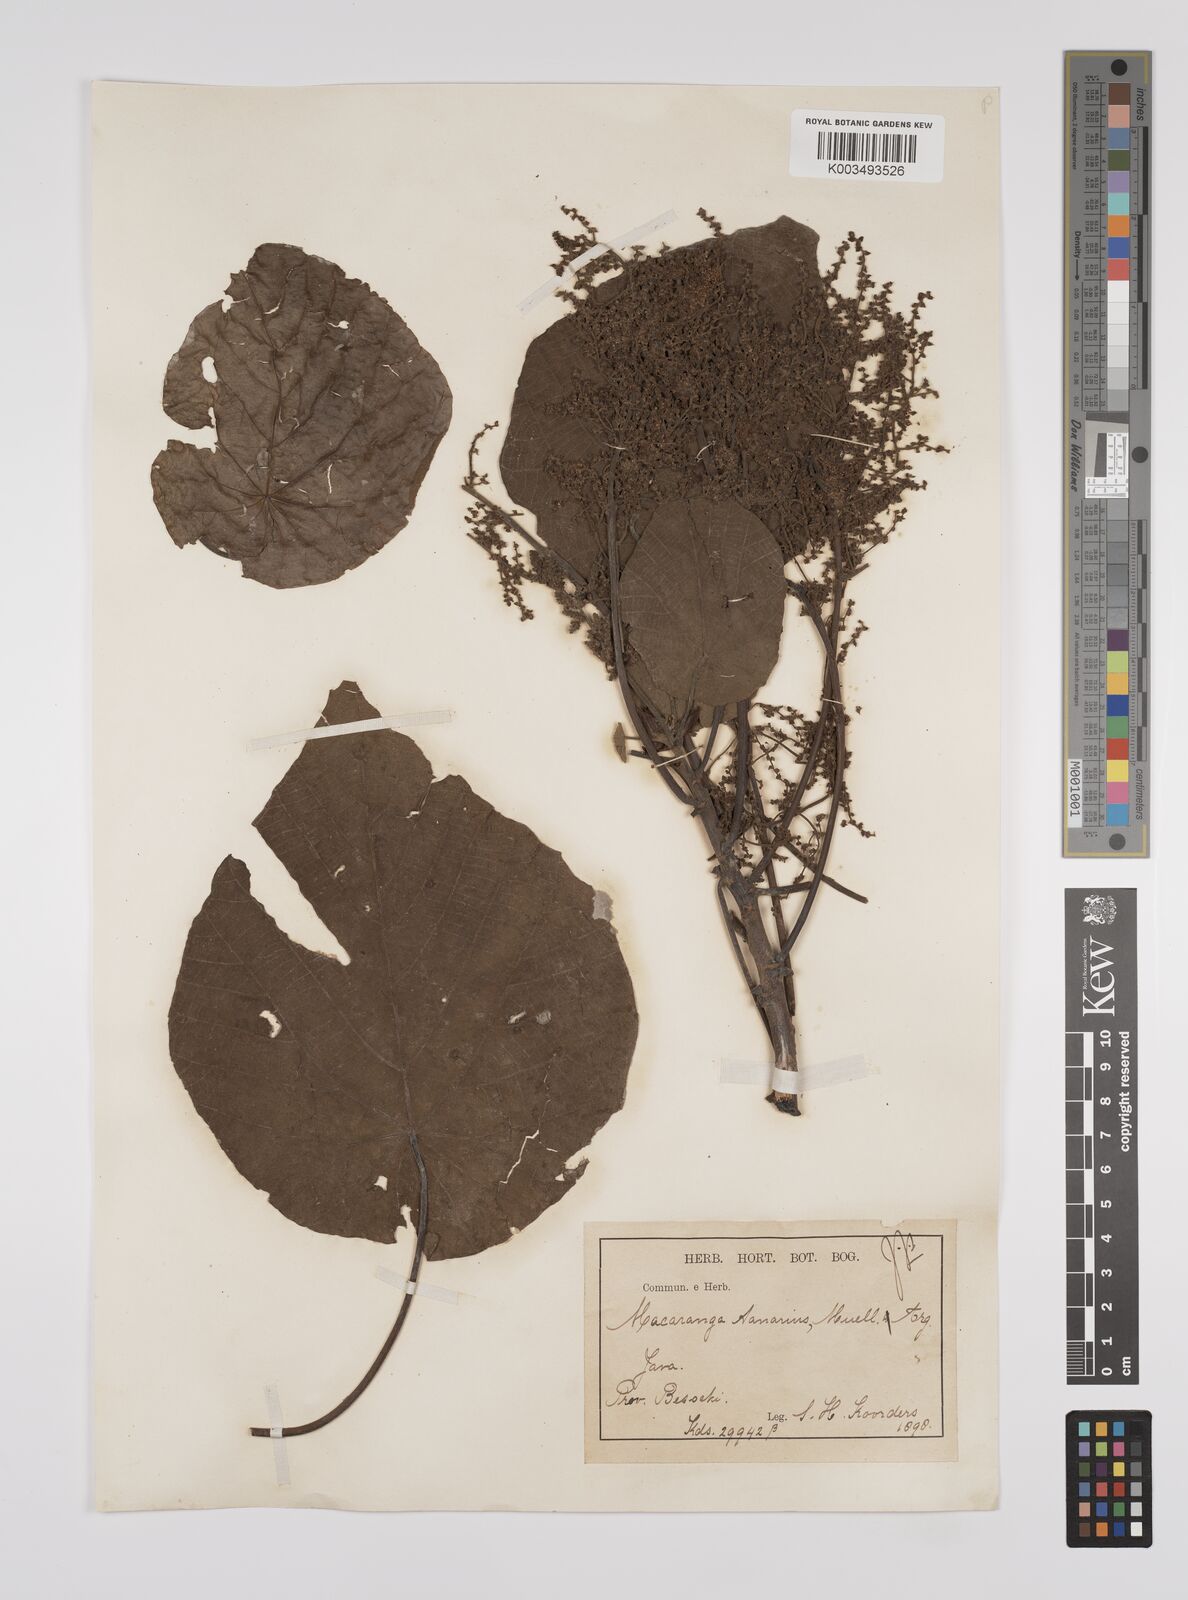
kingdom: Plantae
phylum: Tracheophyta
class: Magnoliopsida
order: Malpighiales
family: Euphorbiaceae
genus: Macaranga
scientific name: Macaranga tanarius
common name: Parasol leaf tree
